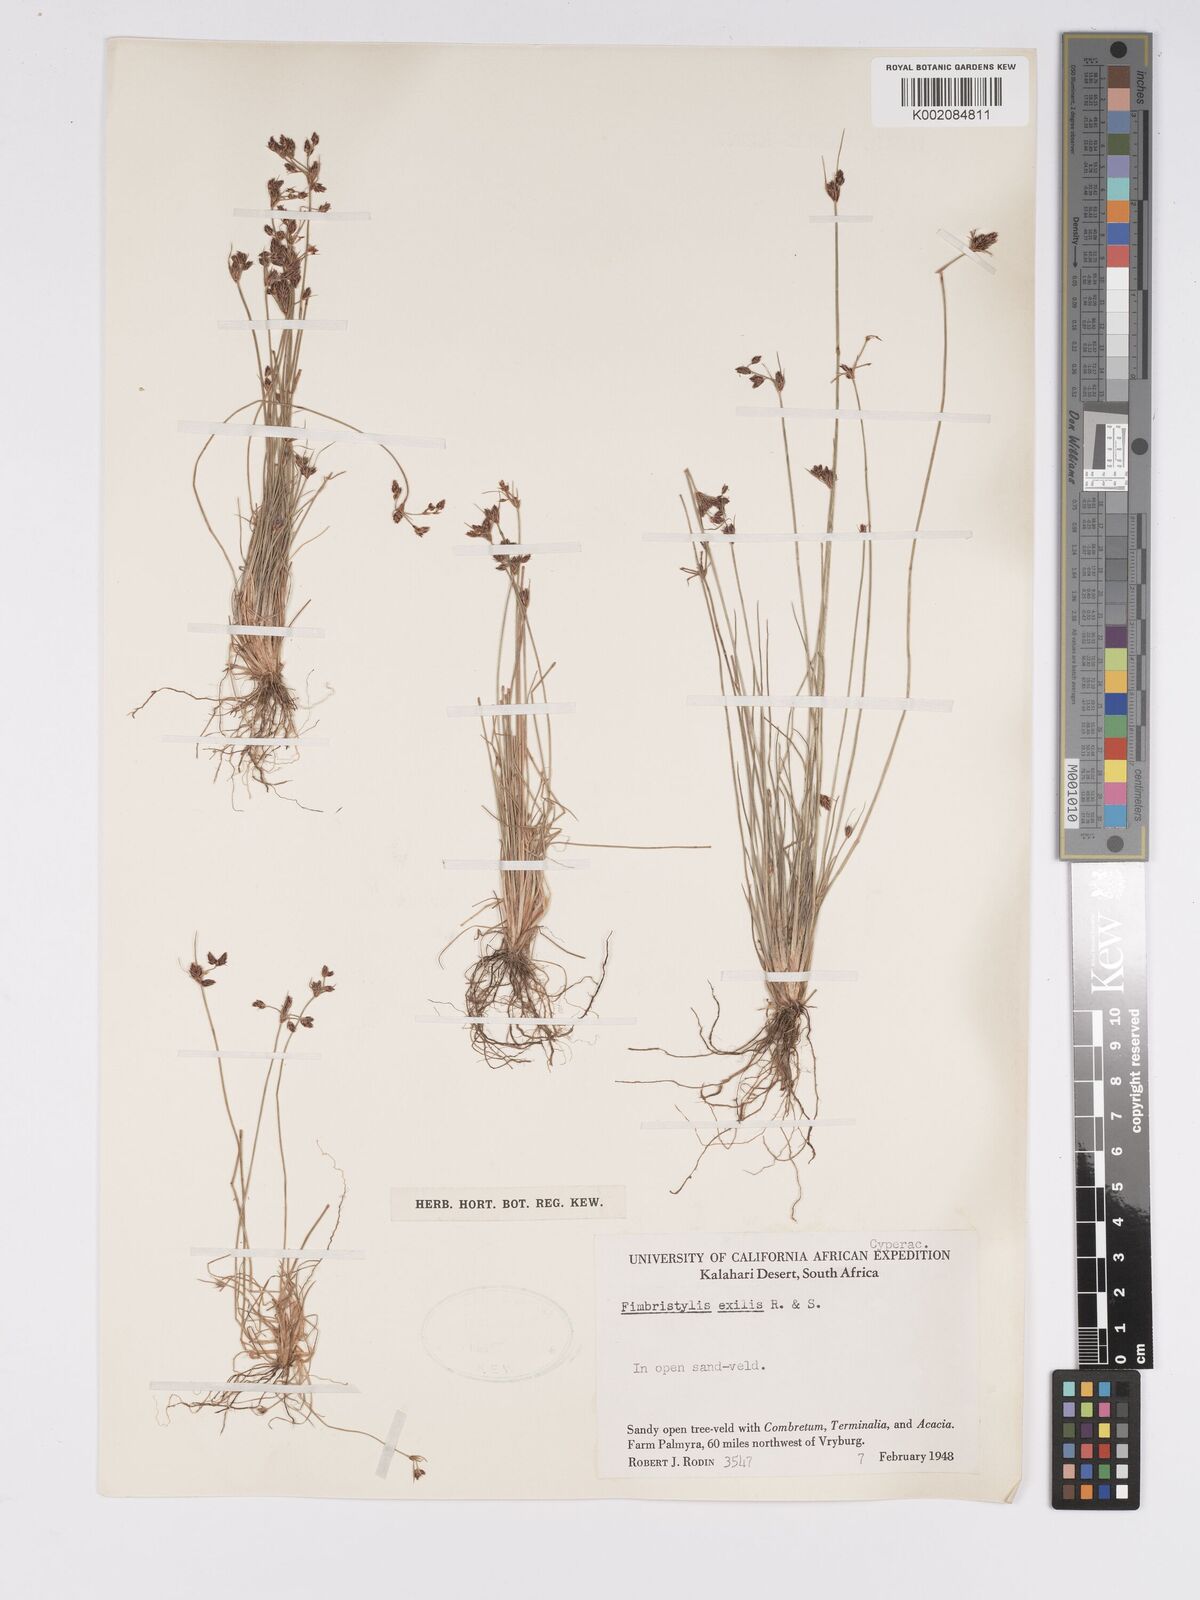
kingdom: Plantae
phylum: Tracheophyta
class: Liliopsida
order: Poales
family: Cyperaceae
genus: Bulbostylis
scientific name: Bulbostylis hispidula
